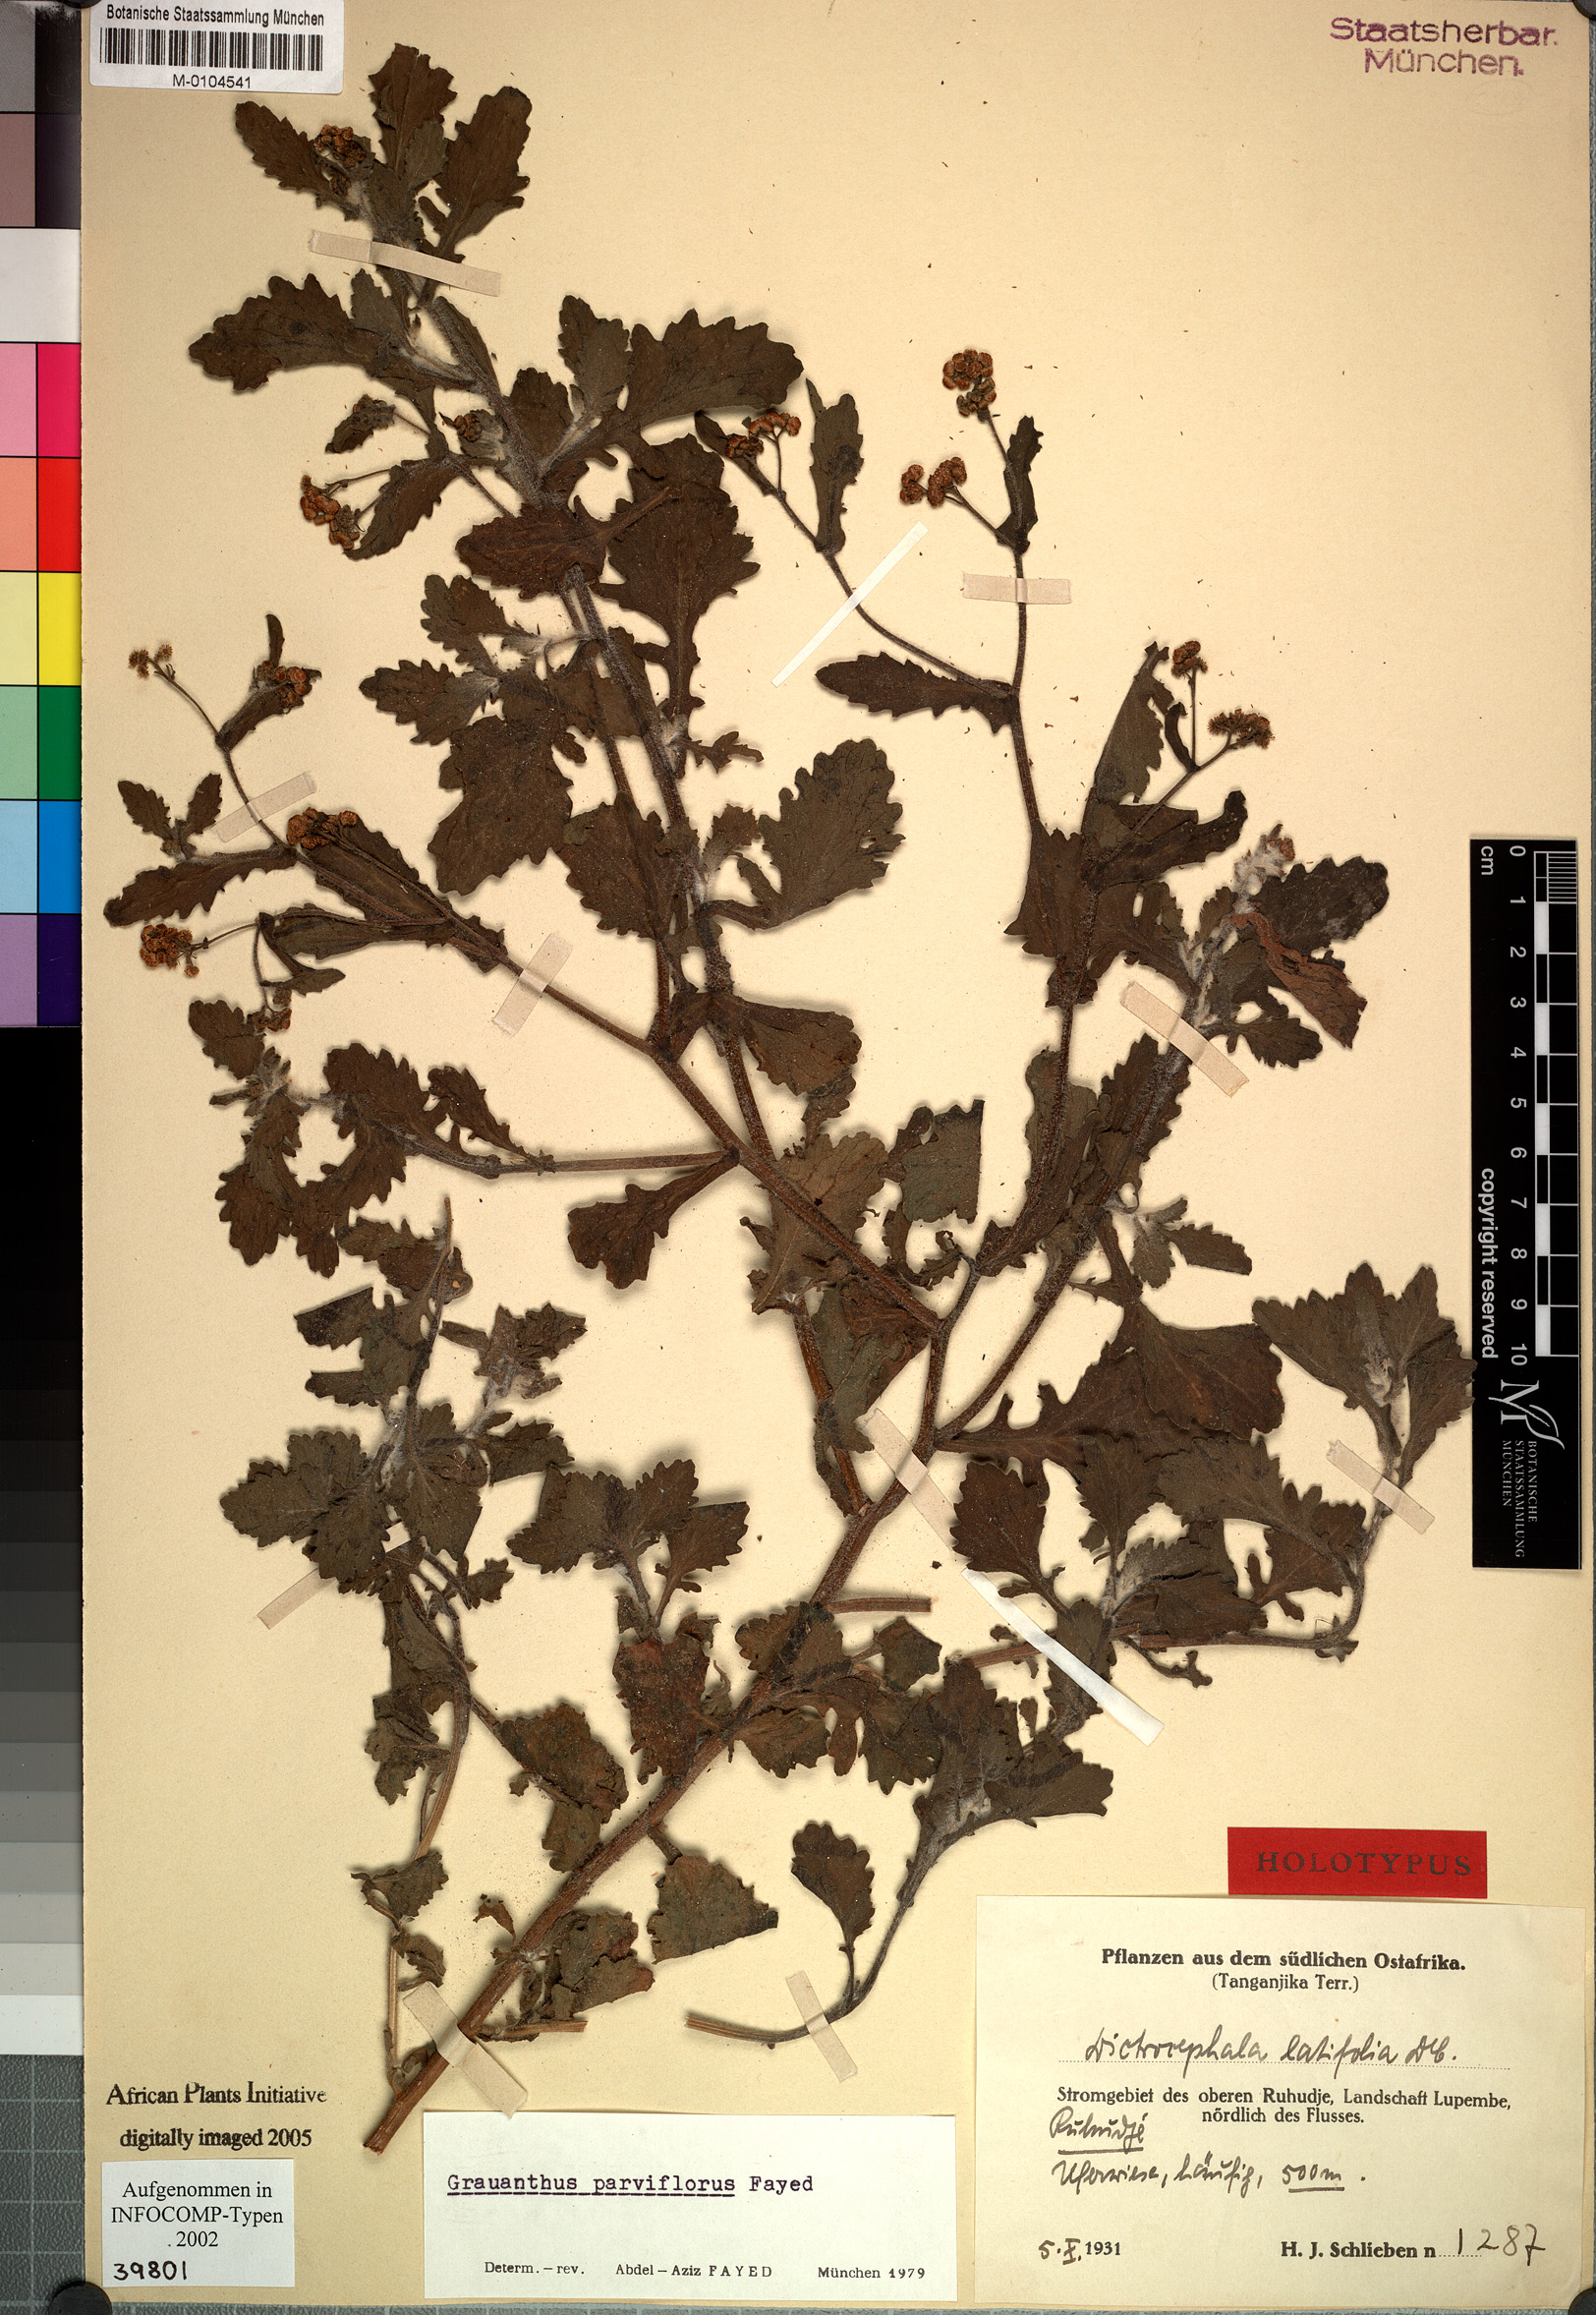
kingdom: Plantae
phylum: Tracheophyta
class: Magnoliopsida
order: Asterales
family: Asteraceae
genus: Grauanthus
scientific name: Grauanthus parviflorus
